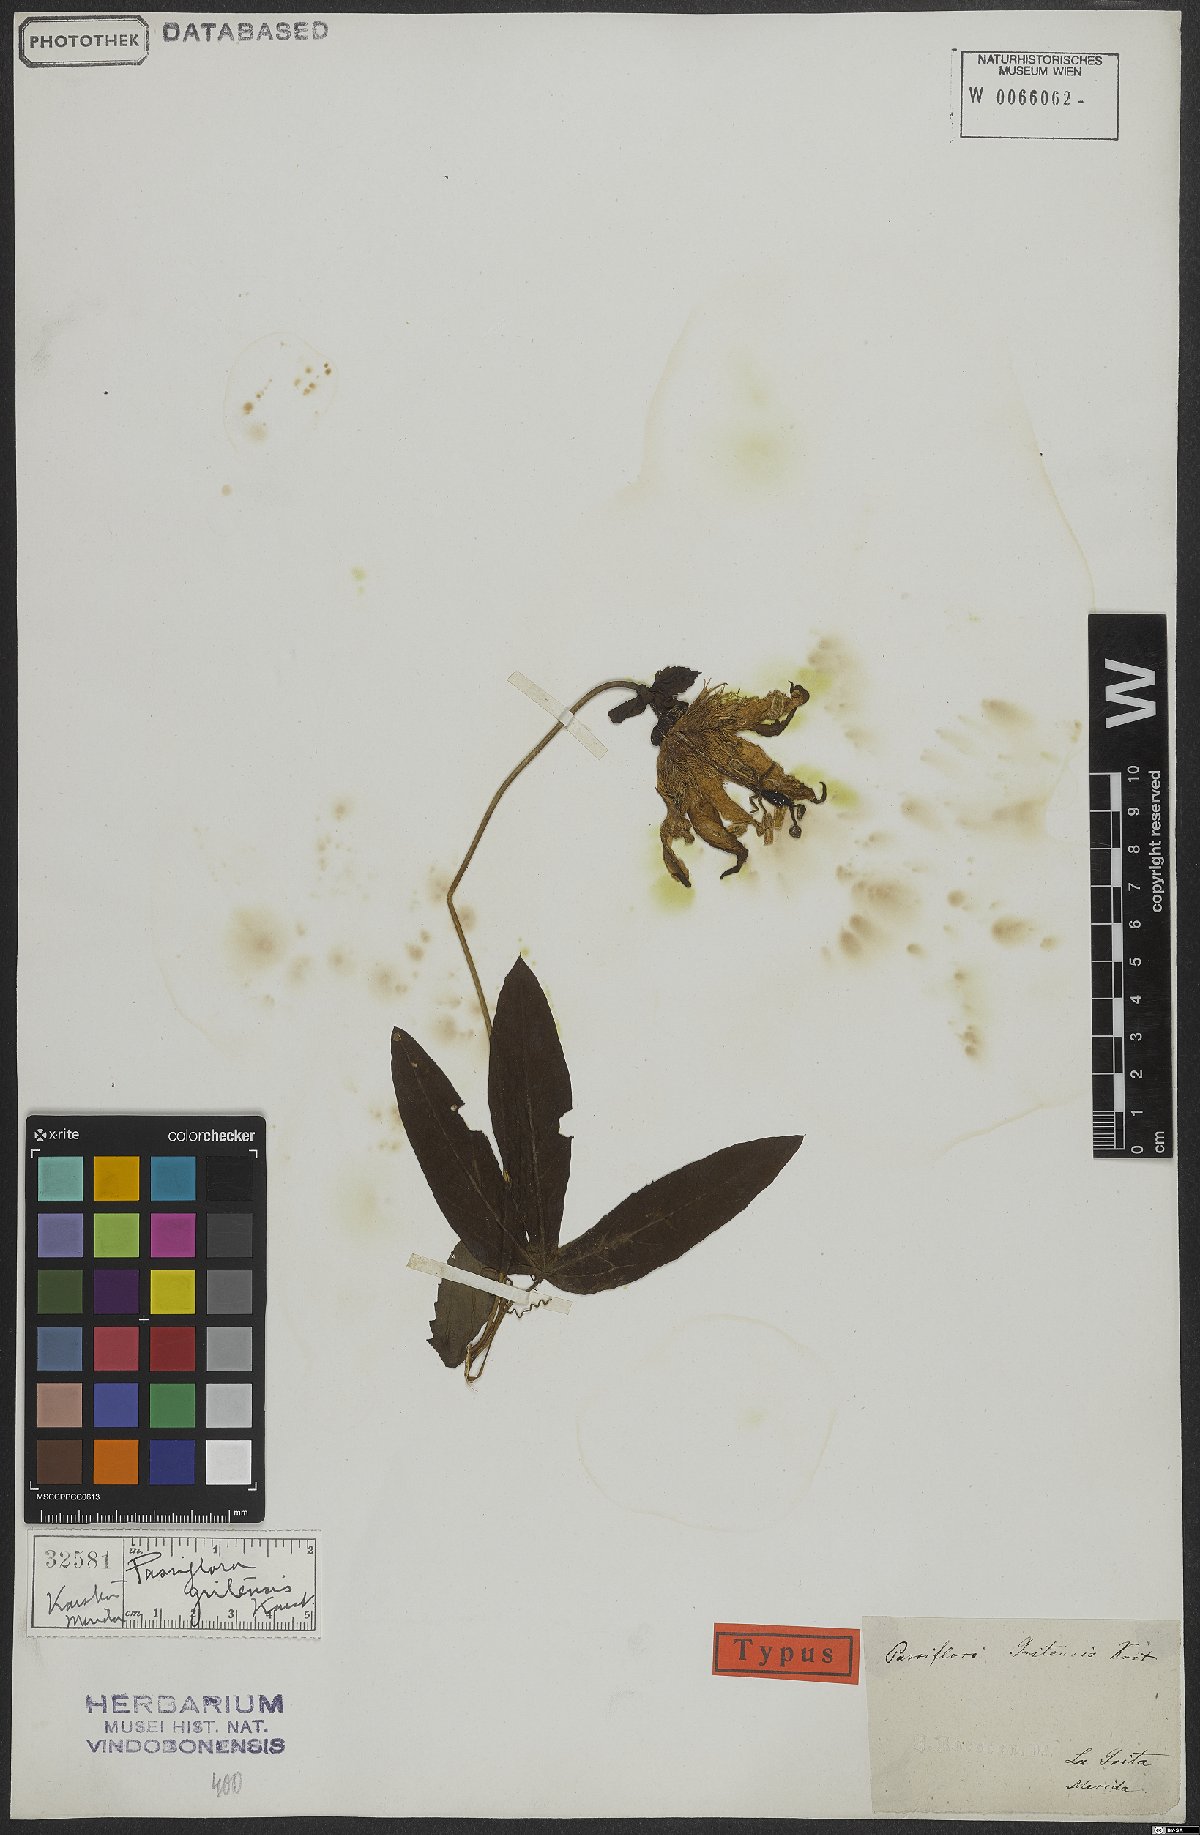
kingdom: Plantae
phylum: Tracheophyta
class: Magnoliopsida
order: Malpighiales
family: Passifloraceae
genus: Passiflora
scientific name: Passiflora gritensis
